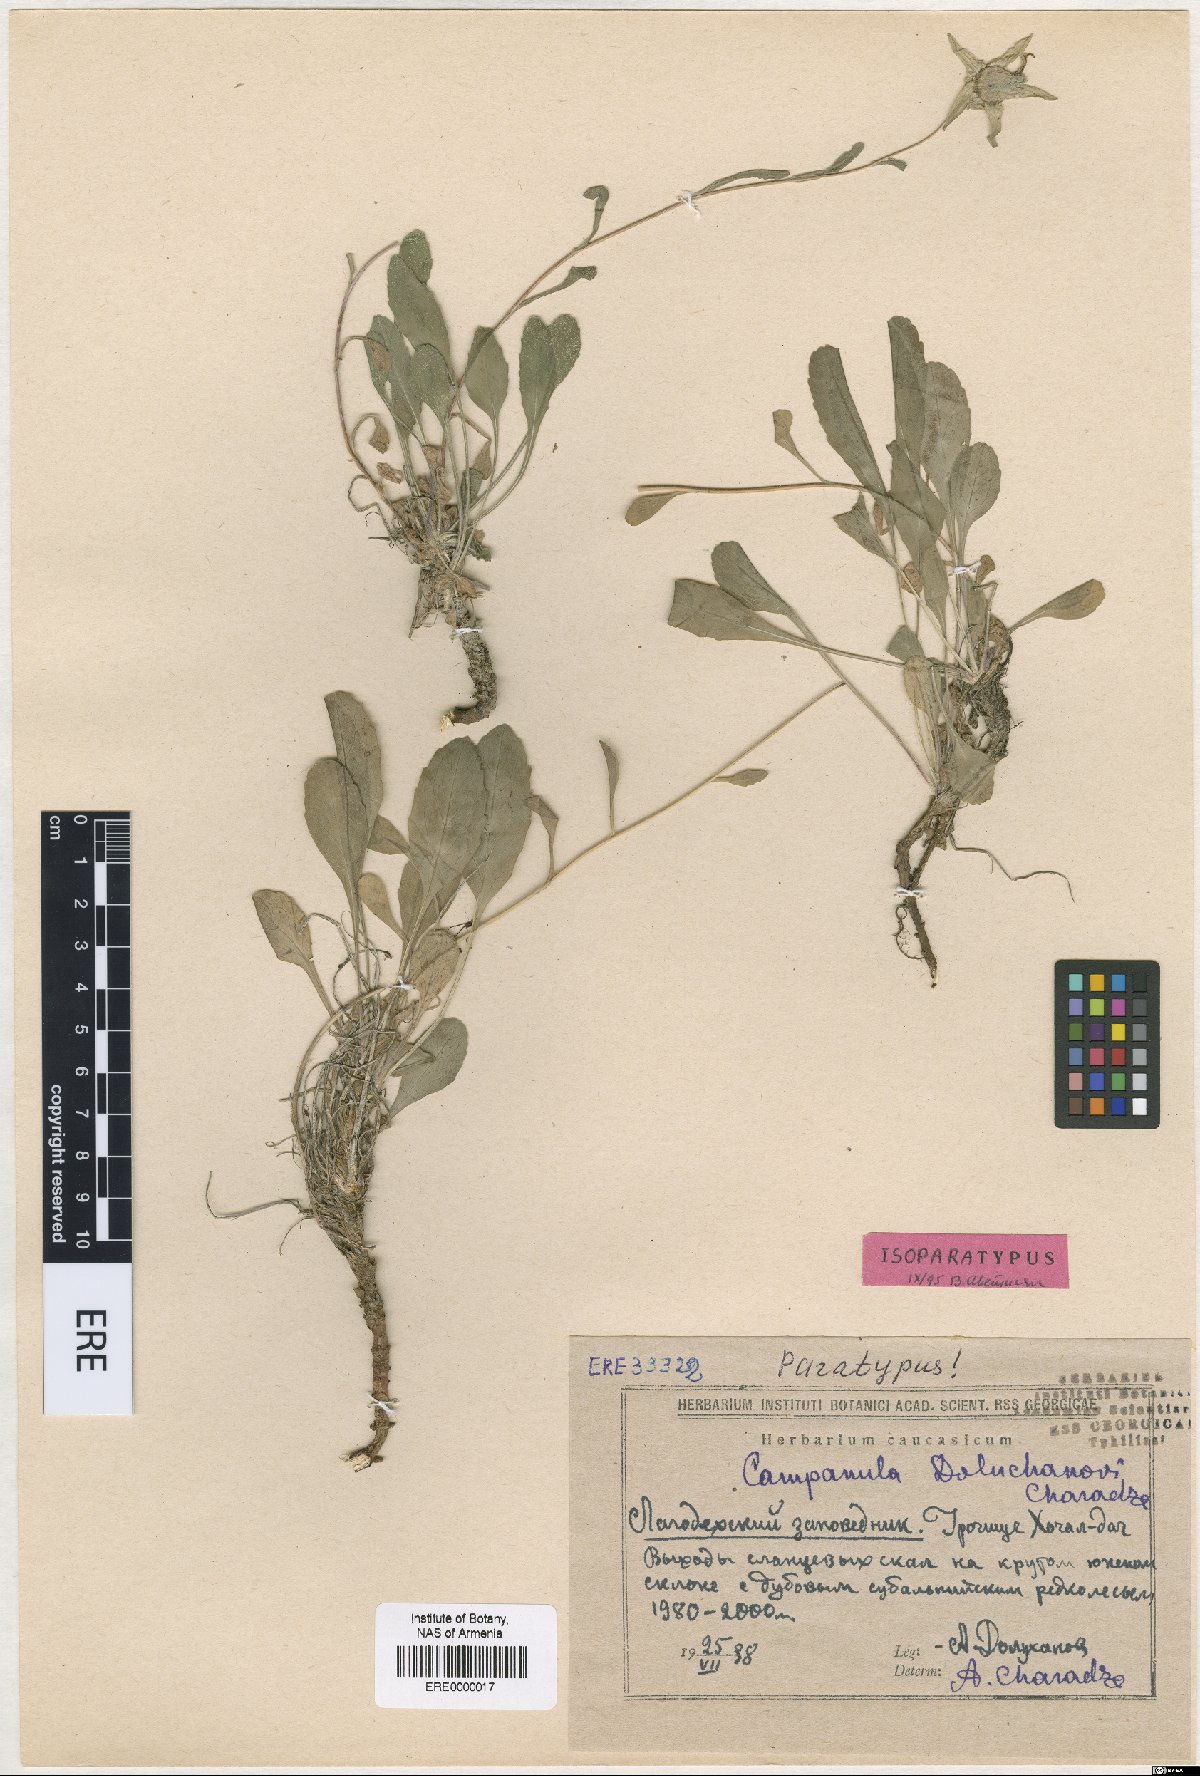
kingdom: Plantae
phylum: Tracheophyta
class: Magnoliopsida
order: Asterales
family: Campanulaceae
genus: Campanula
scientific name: Campanula saxifraga
